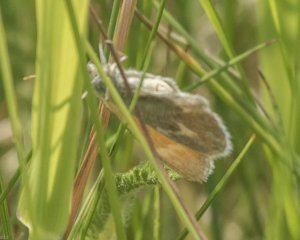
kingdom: Animalia
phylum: Arthropoda
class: Insecta
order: Lepidoptera
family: Nymphalidae
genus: Coenonympha
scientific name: Coenonympha tullia
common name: Large Heath
